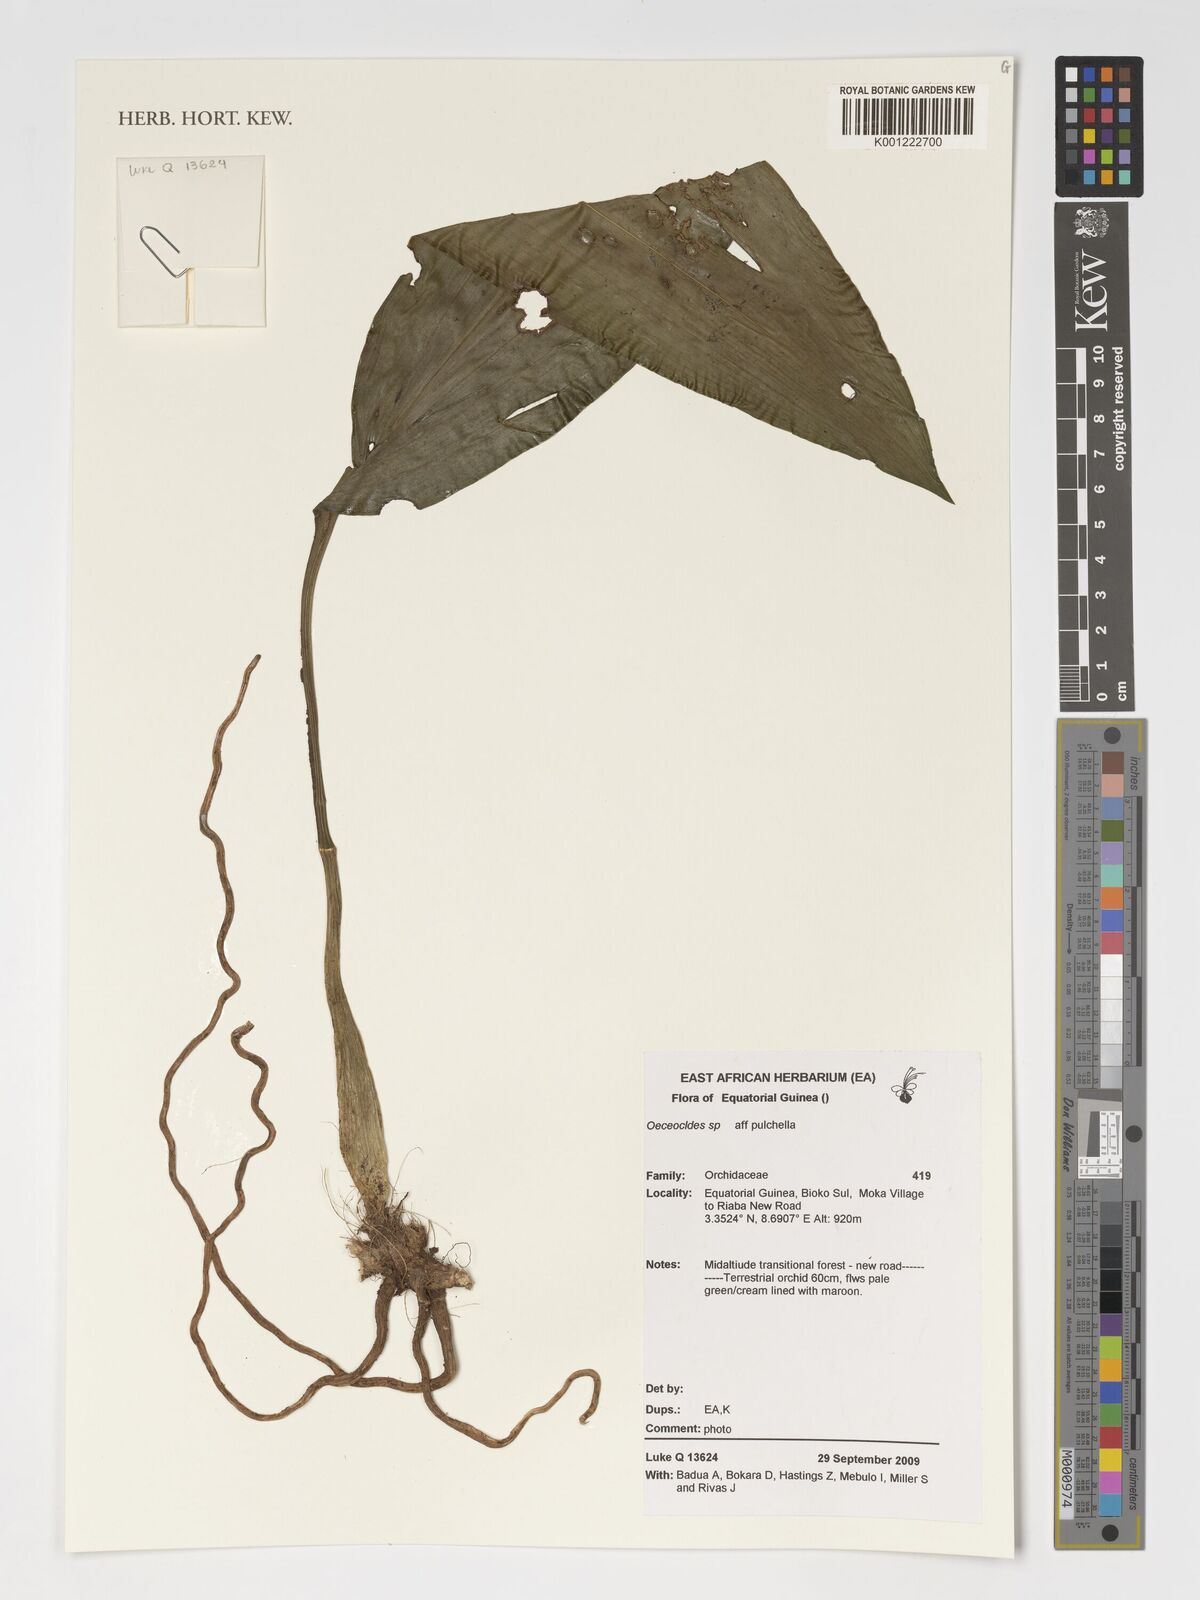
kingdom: Plantae
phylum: Tracheophyta
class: Liliopsida
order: Asparagales
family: Orchidaceae
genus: Eulophia
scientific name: Eulophia
